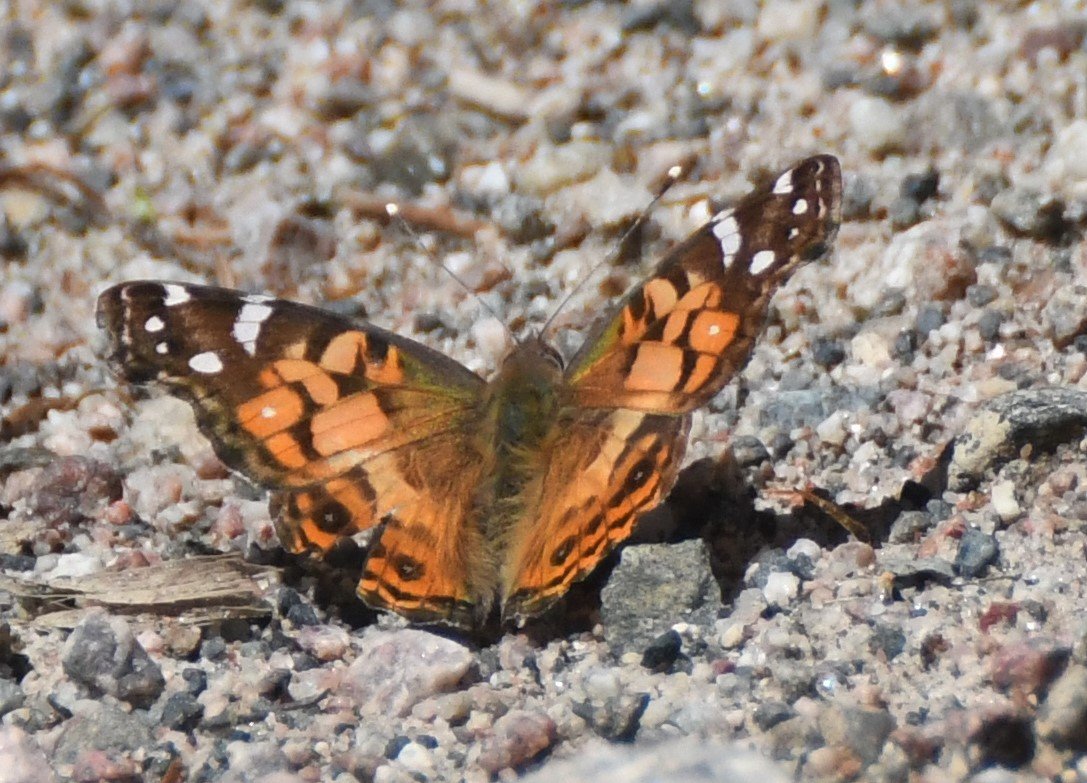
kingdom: Animalia
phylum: Arthropoda
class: Insecta
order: Lepidoptera
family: Nymphalidae
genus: Vanessa
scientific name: Vanessa virginiensis
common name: American Lady
